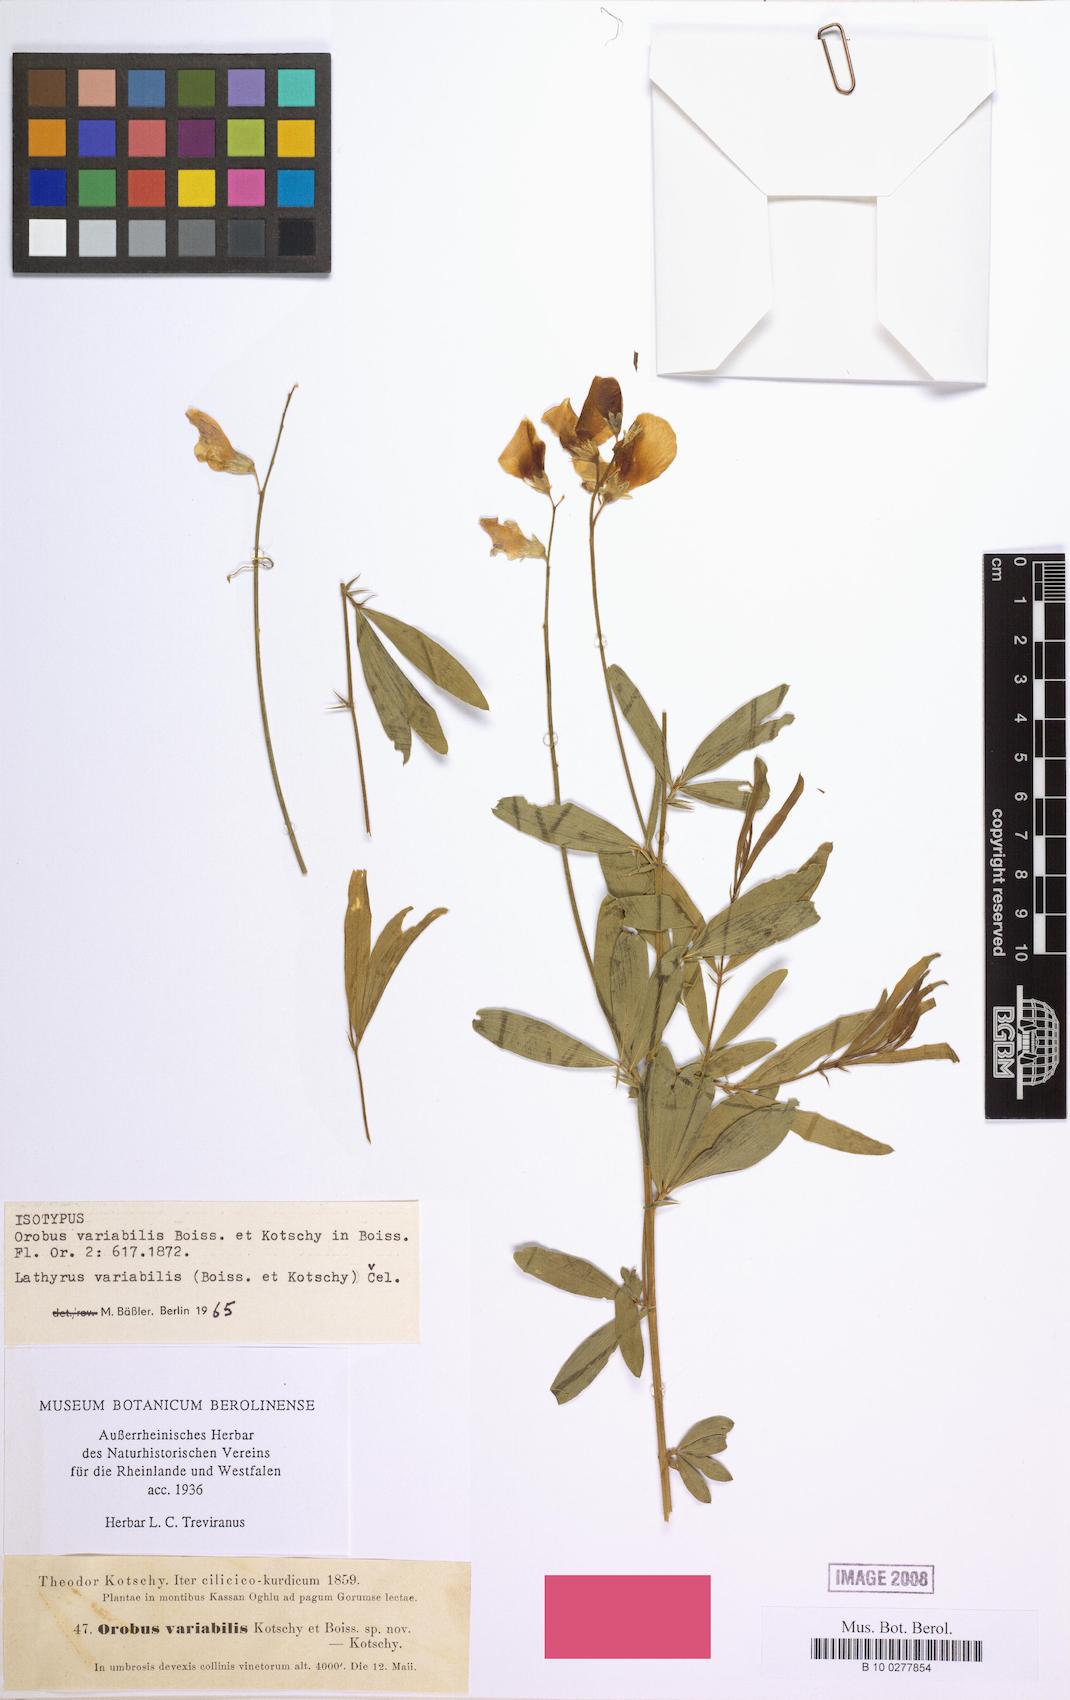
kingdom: Plantae
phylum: Tracheophyta
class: Magnoliopsida
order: Fabales
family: Fabaceae
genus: Lathyrus
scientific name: Lathyrus variabilis
